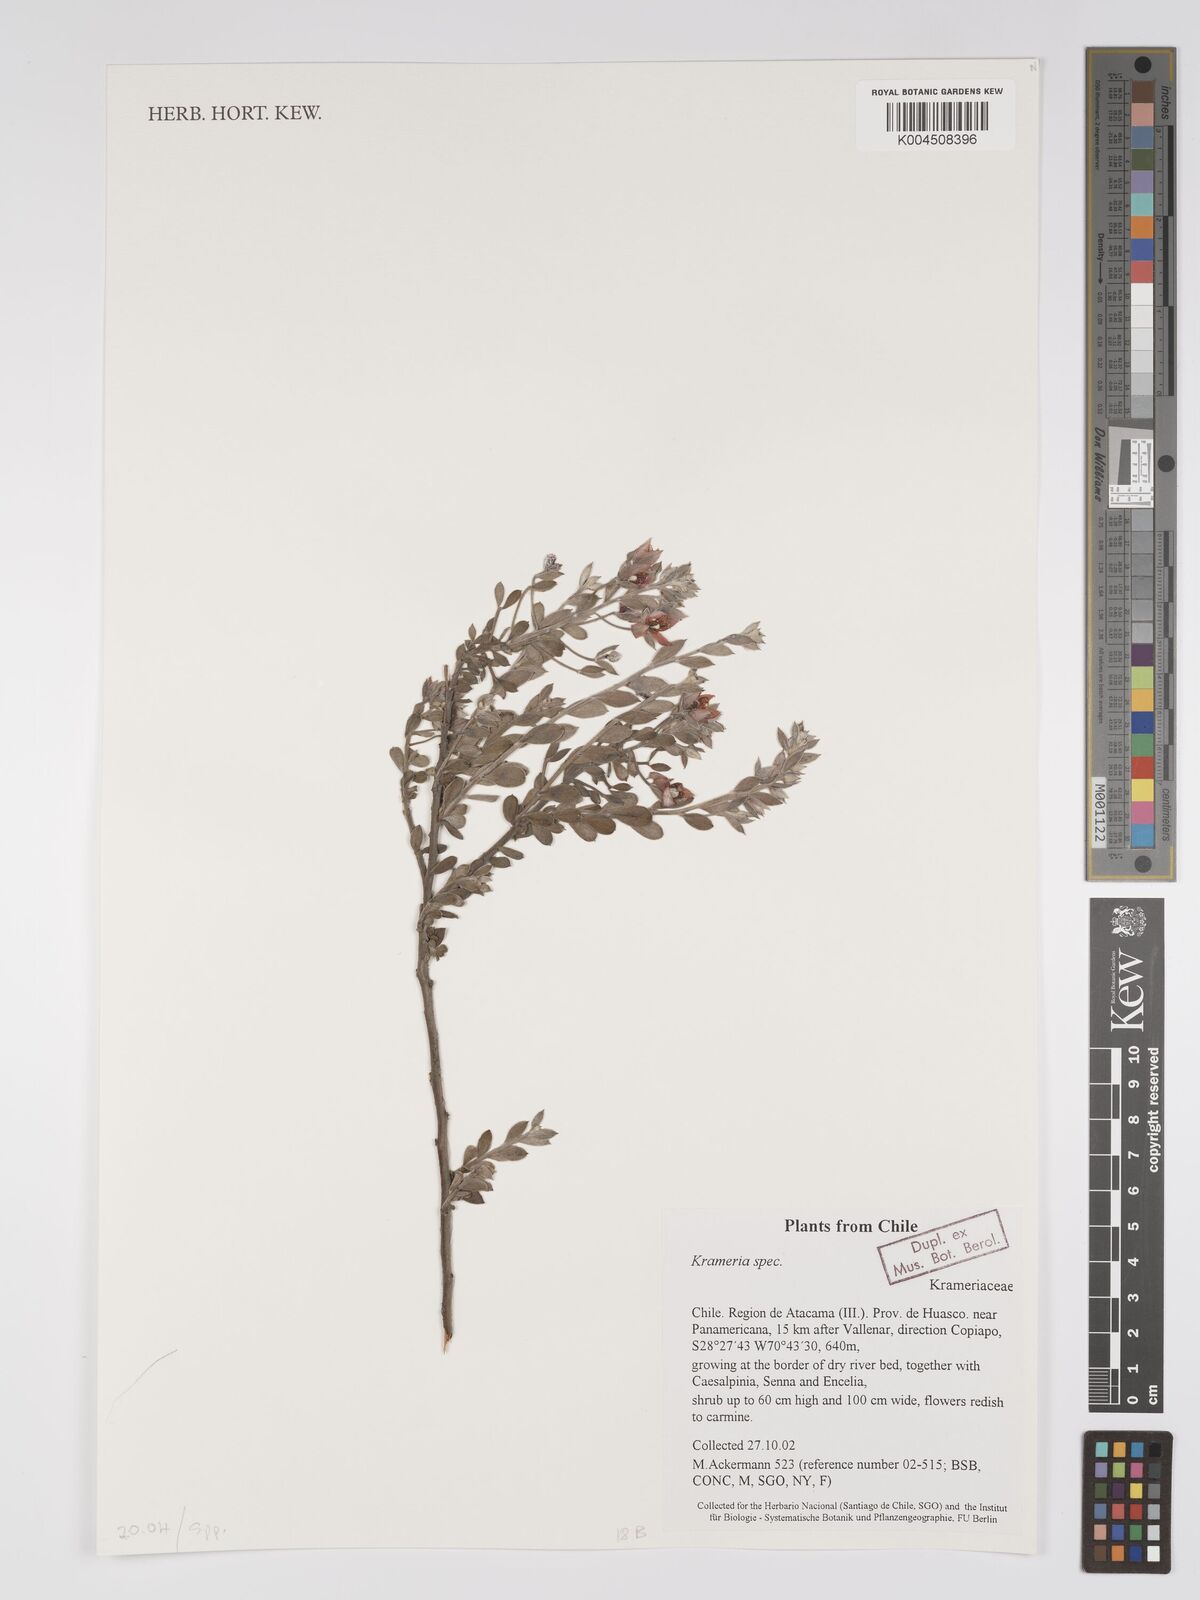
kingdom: Plantae
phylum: Tracheophyta
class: Magnoliopsida
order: Zygophyllales
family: Krameriaceae
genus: Krameria
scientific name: Krameria
